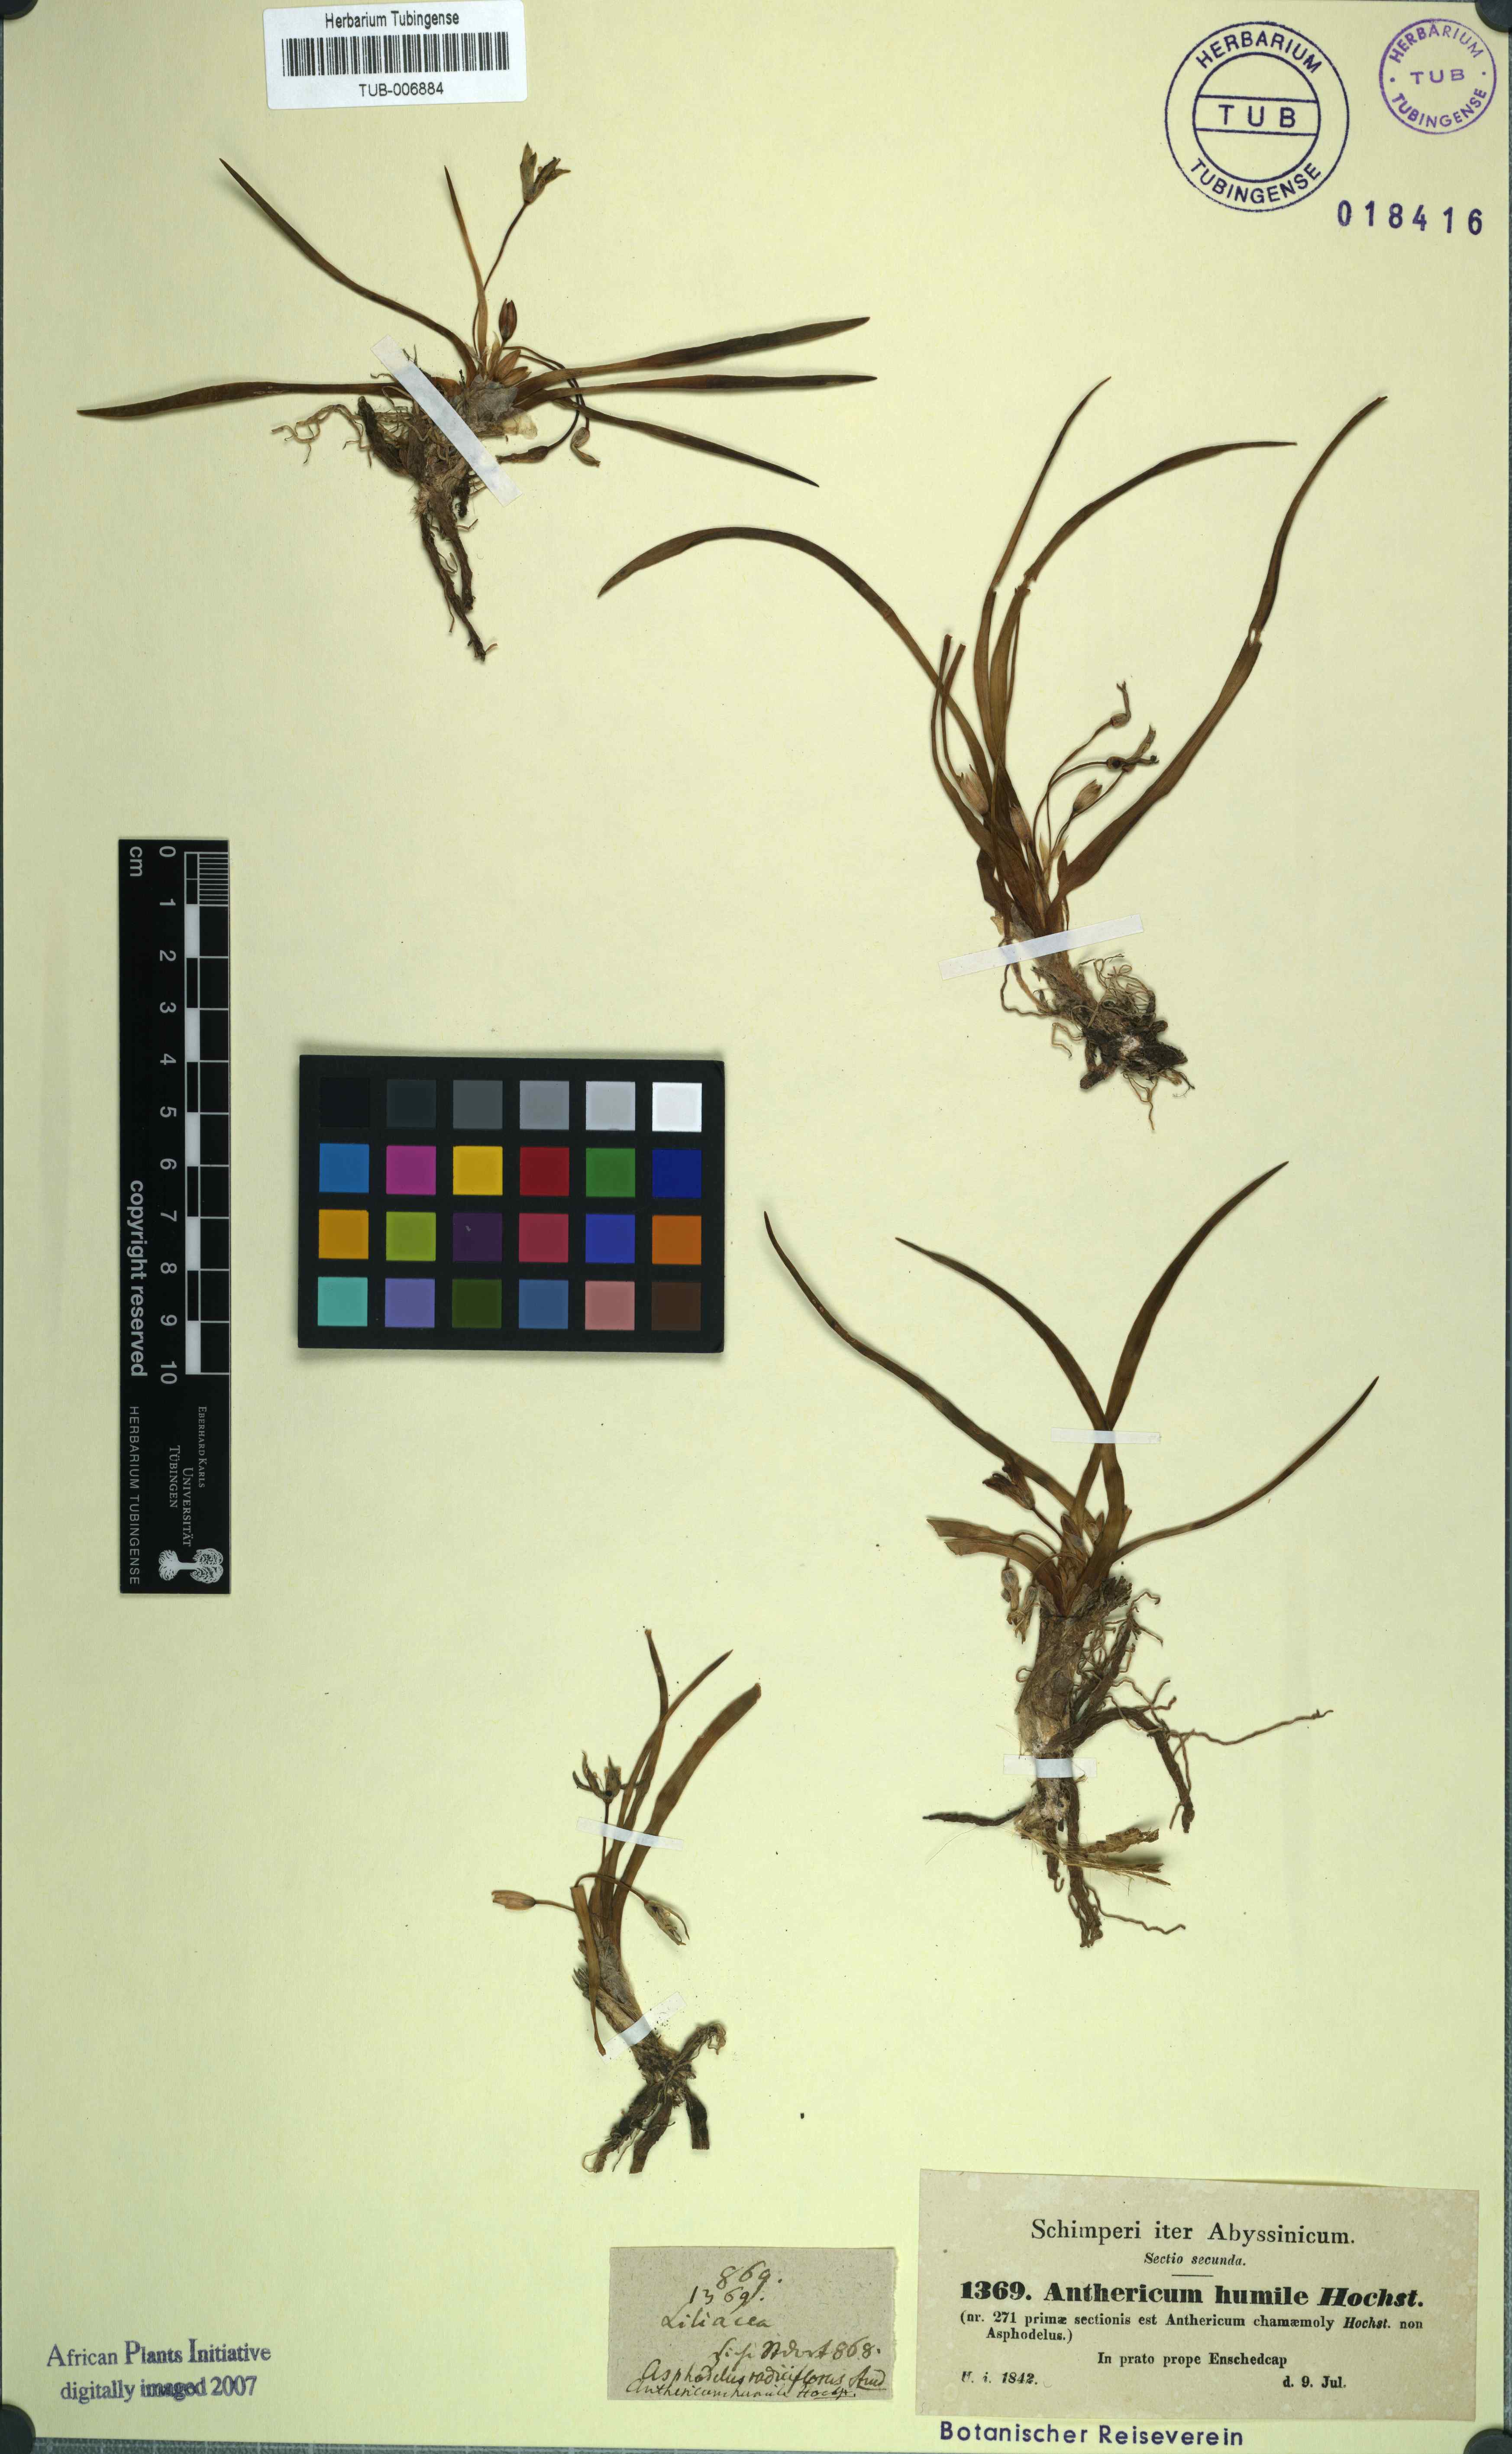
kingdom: Plantae
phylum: Tracheophyta
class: Liliopsida
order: Asparagales
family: Asparagaceae
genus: Anthericum
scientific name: Anthericum angustifolium
